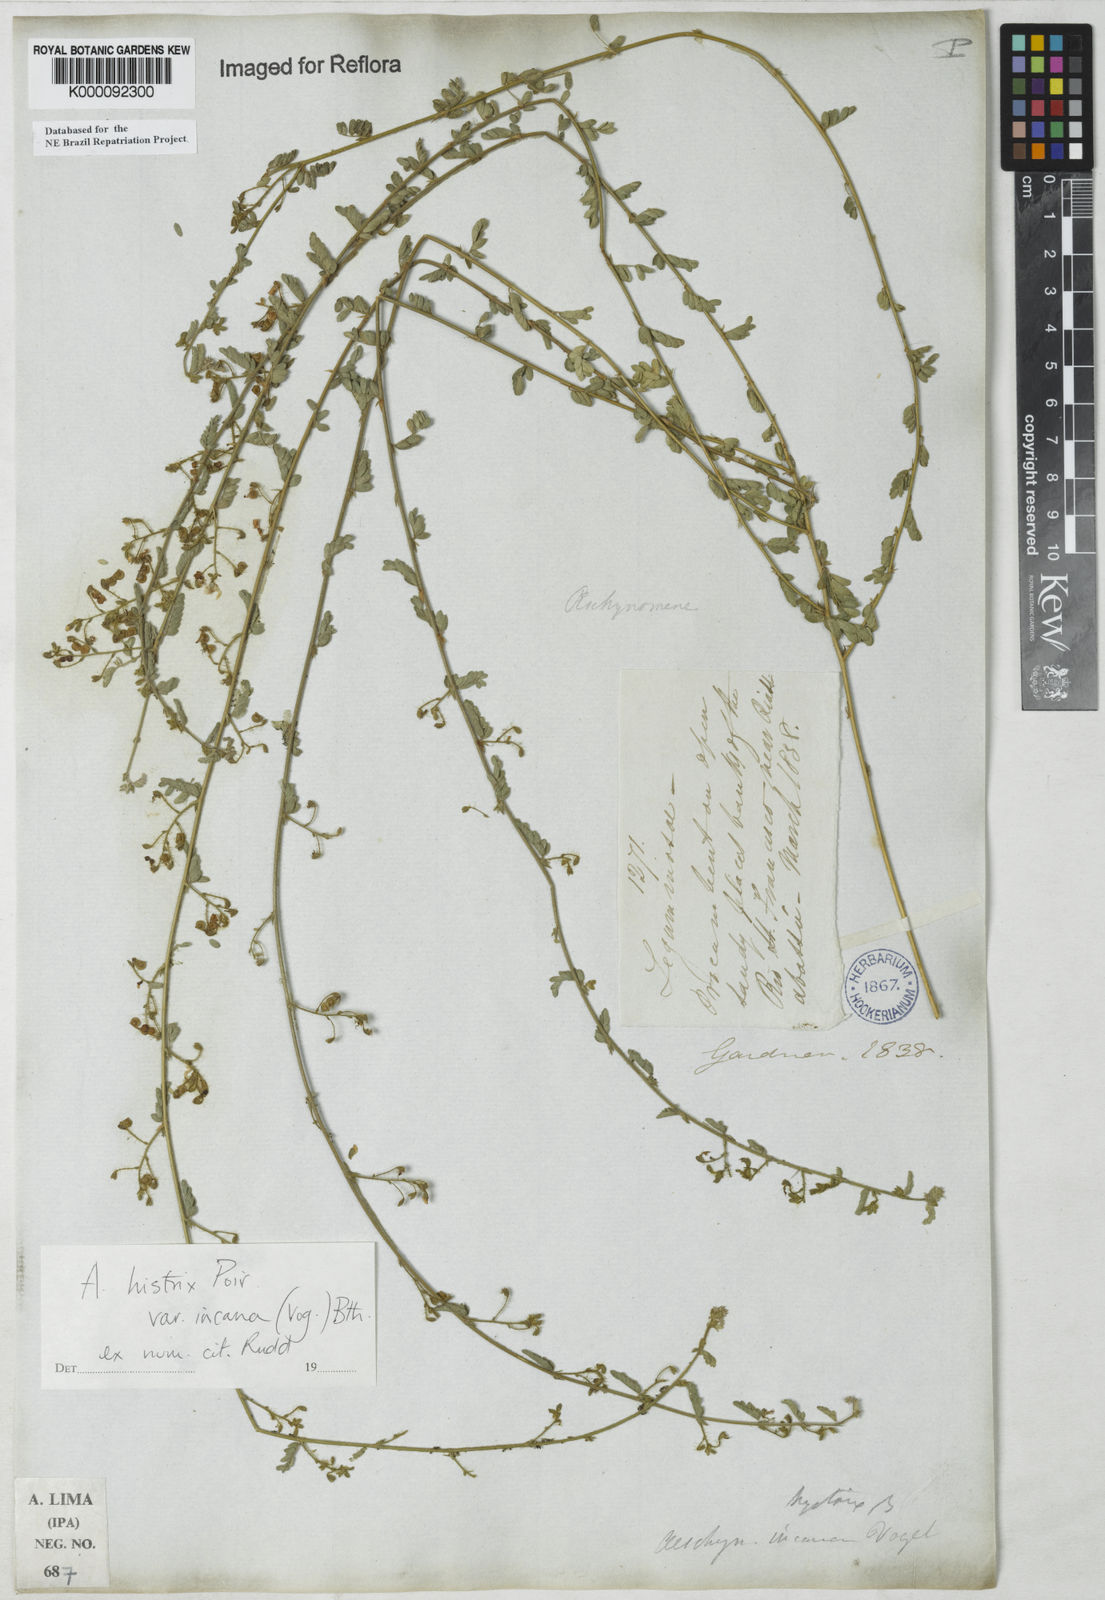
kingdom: Plantae
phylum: Tracheophyta
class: Magnoliopsida
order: Fabales
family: Fabaceae
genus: Ctenodon
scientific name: Ctenodon histrix
